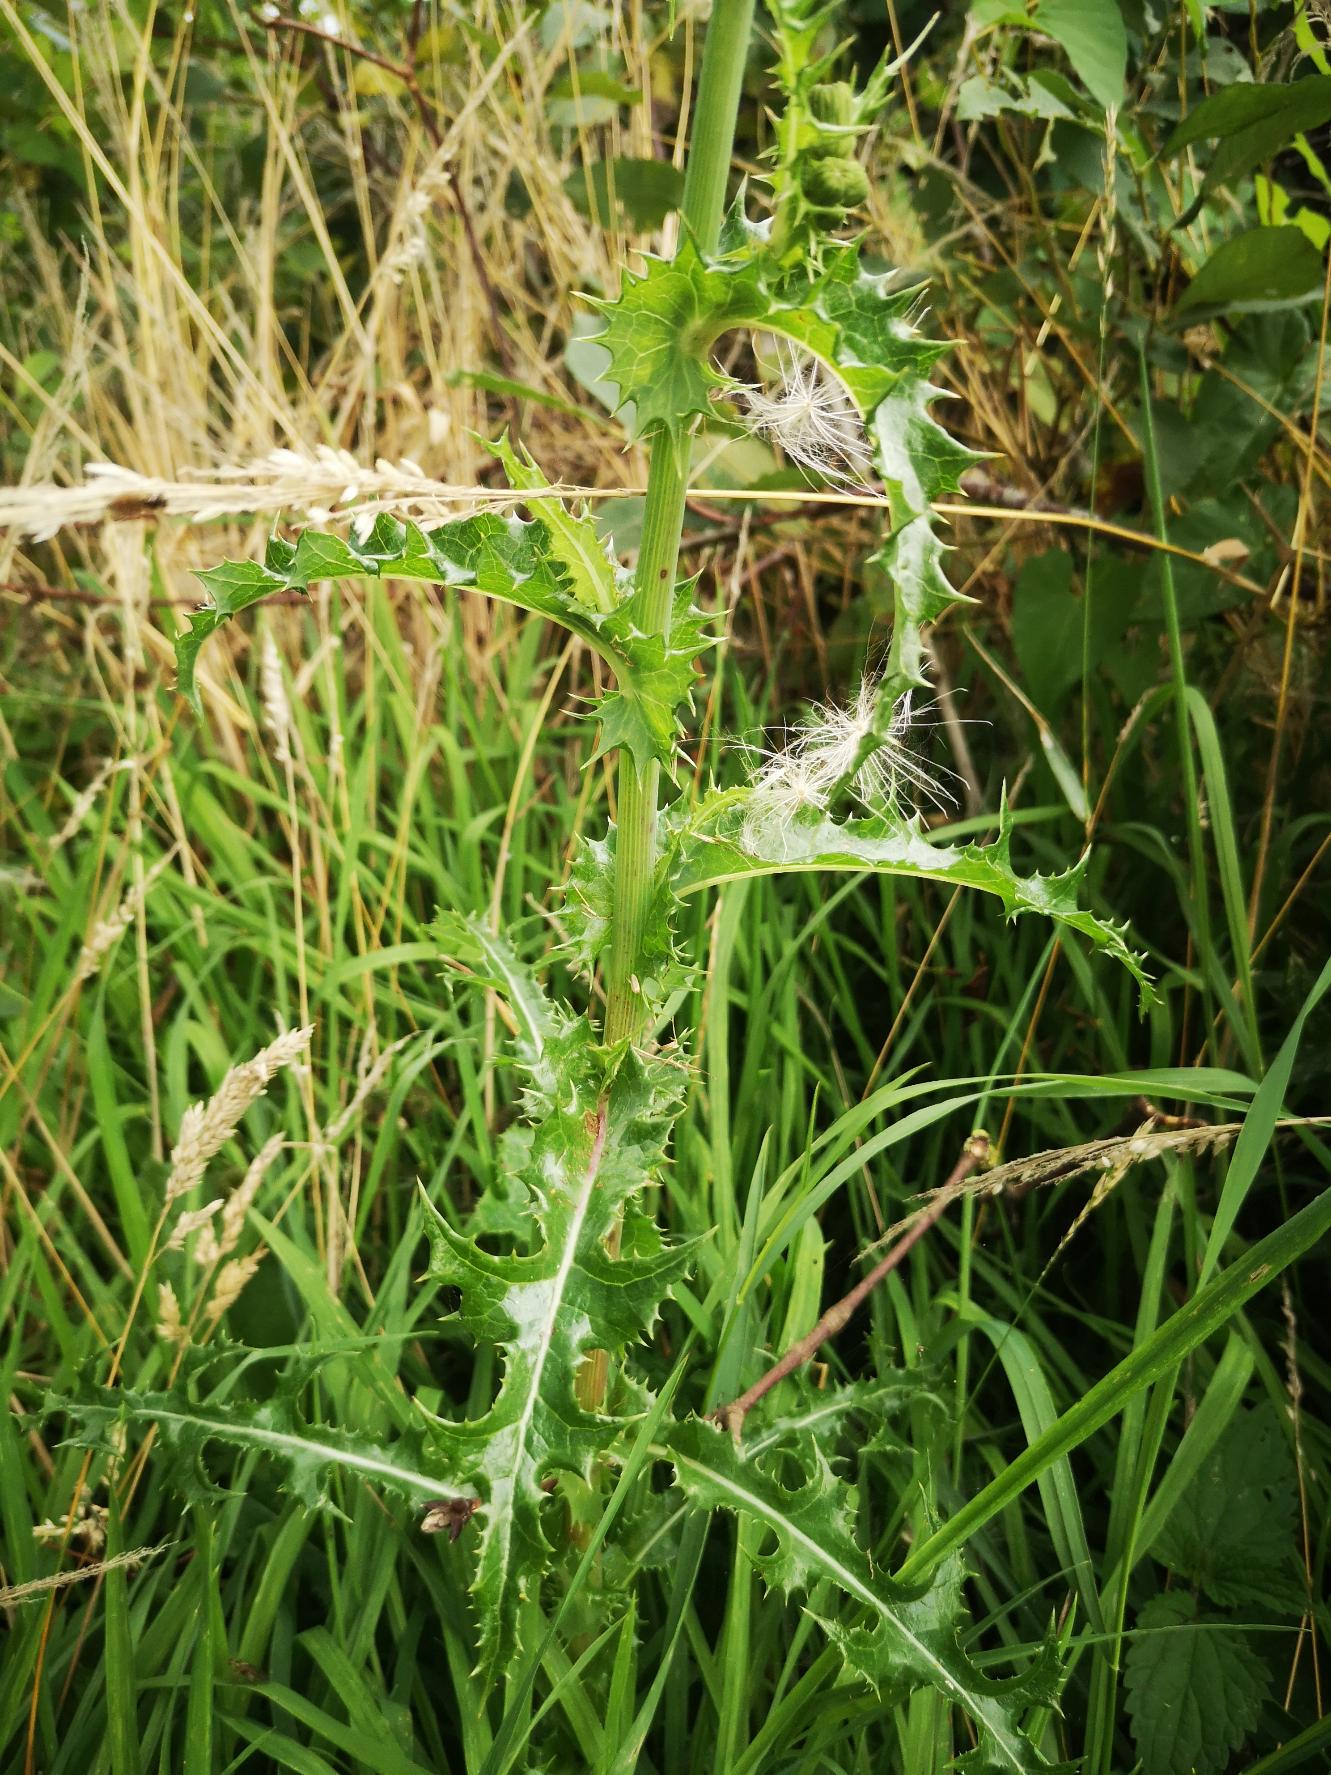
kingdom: Plantae
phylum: Tracheophyta
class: Magnoliopsida
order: Asterales
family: Asteraceae
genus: Sonchus
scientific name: Sonchus asper
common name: Ru svinemælk
